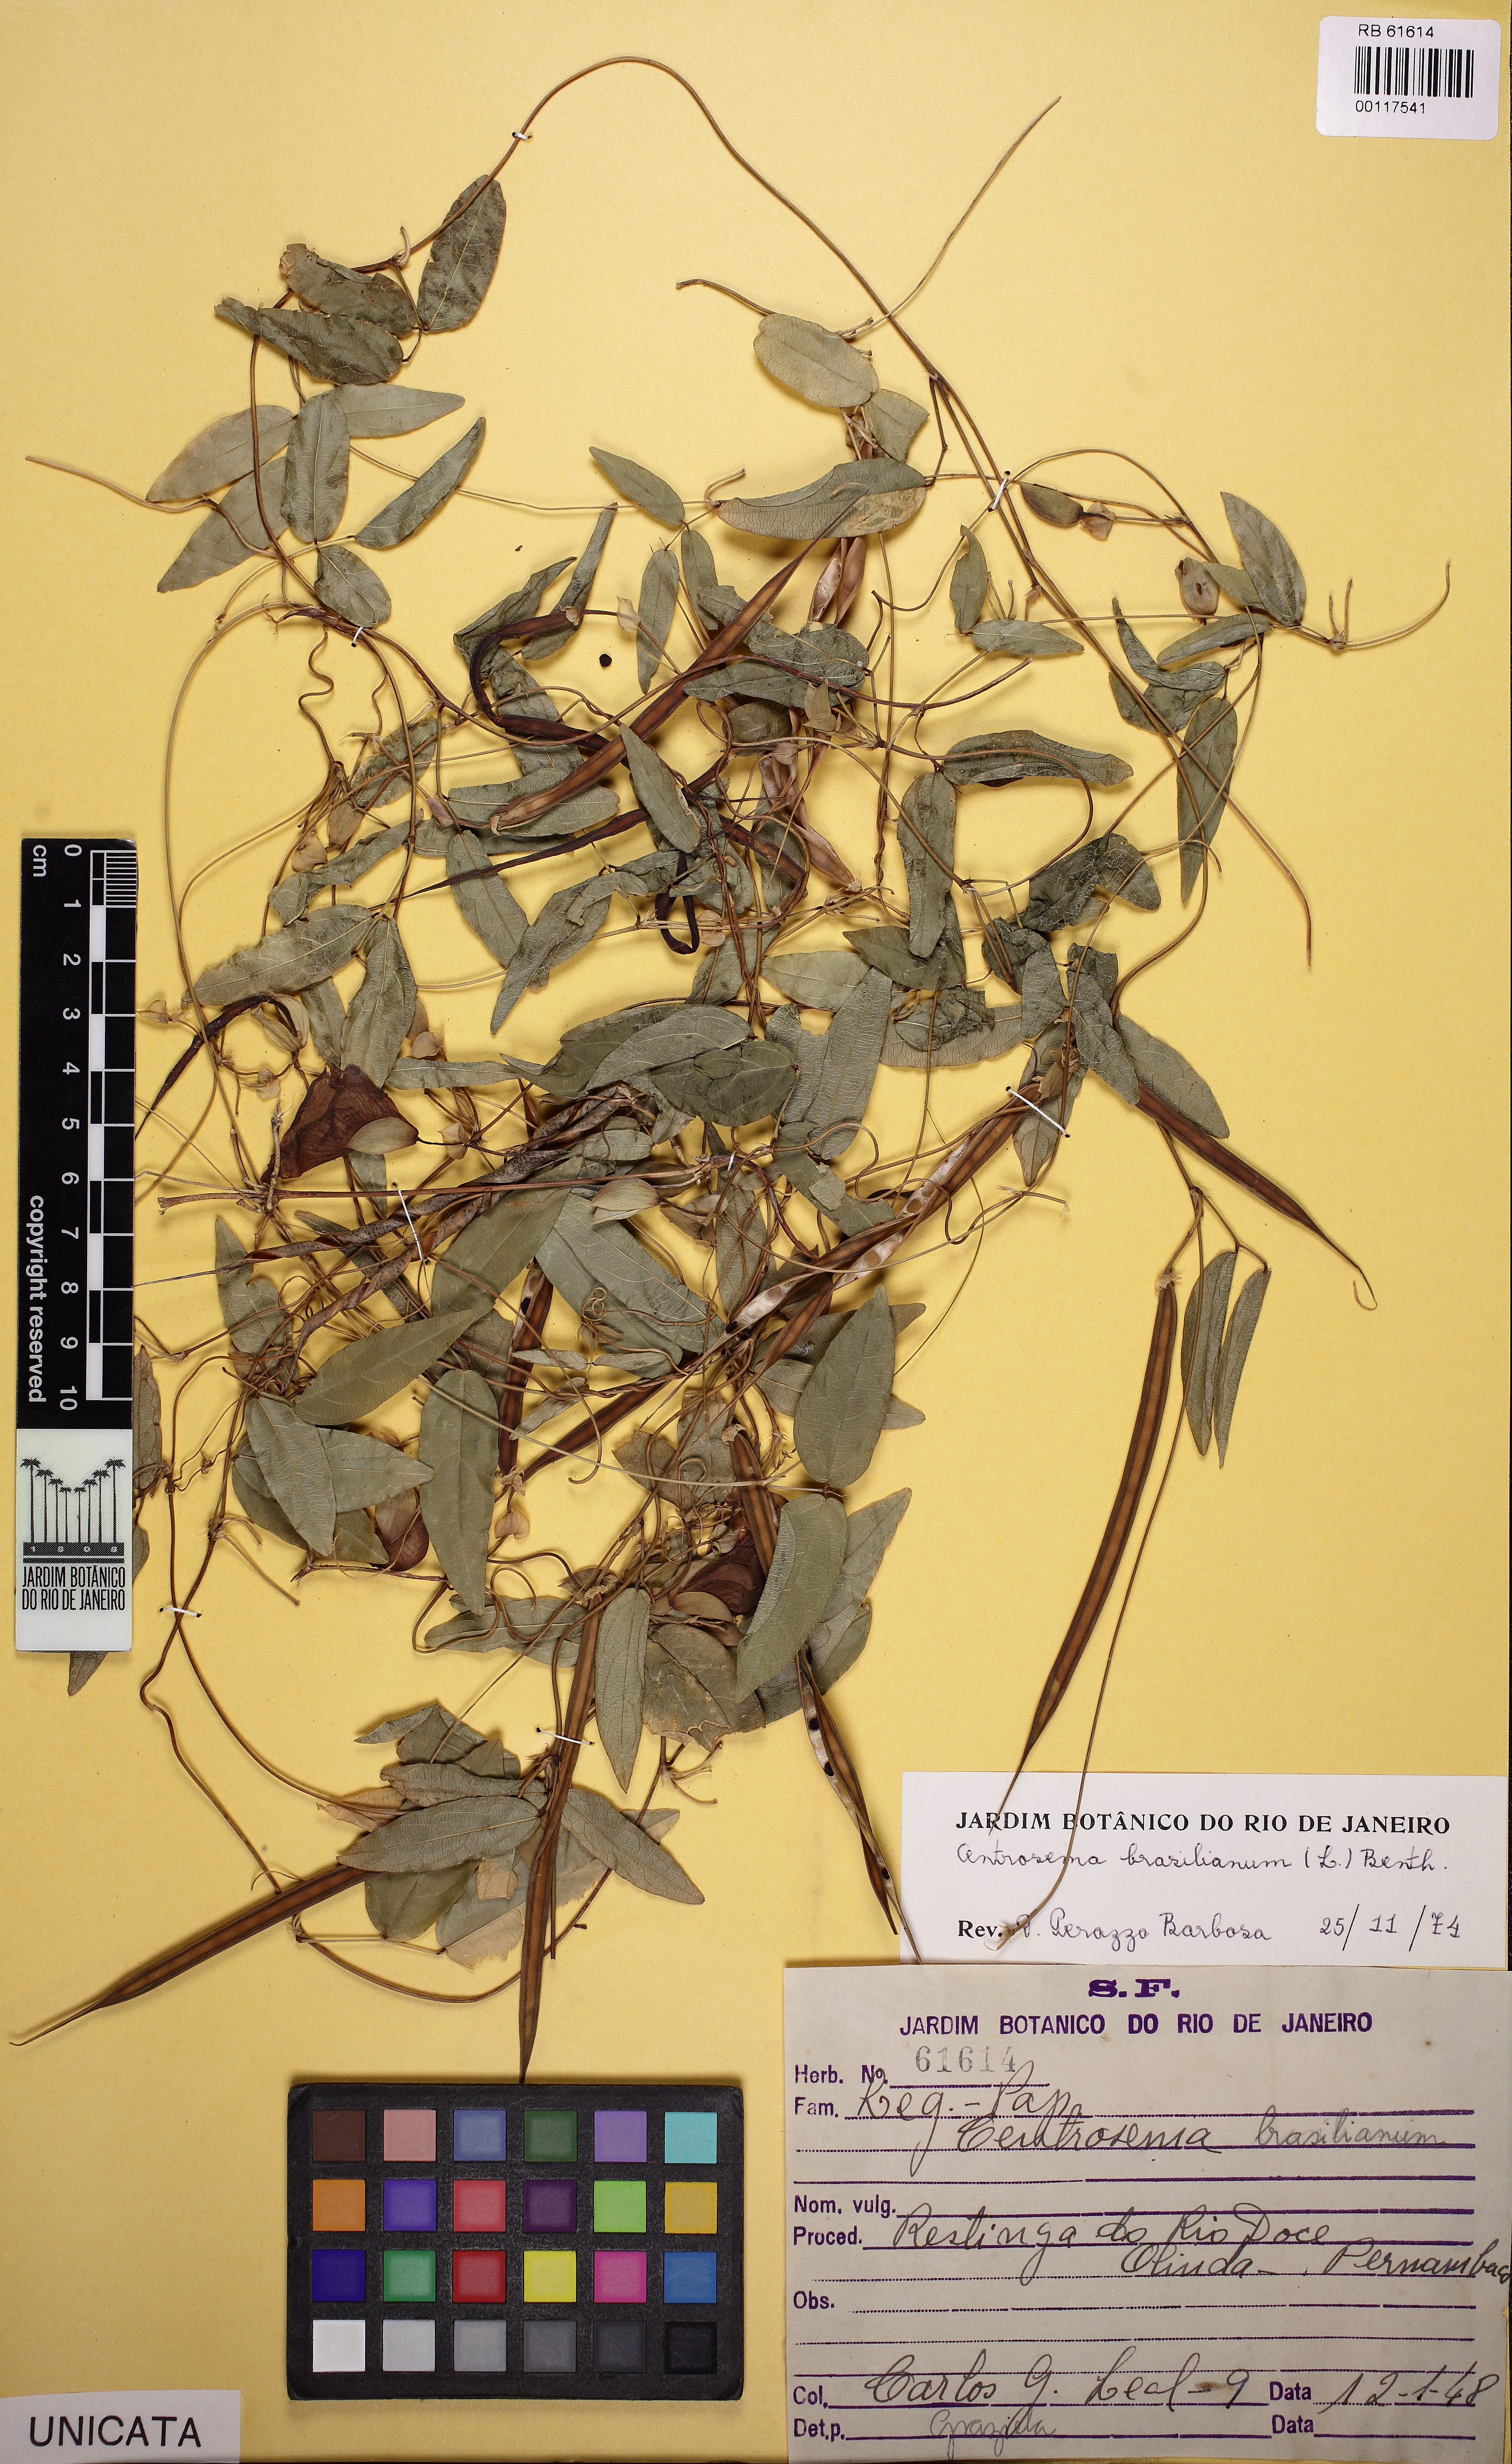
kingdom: Plantae
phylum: Tracheophyta
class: Magnoliopsida
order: Fabales
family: Fabaceae
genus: Centrosema
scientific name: Centrosema brasilianum
